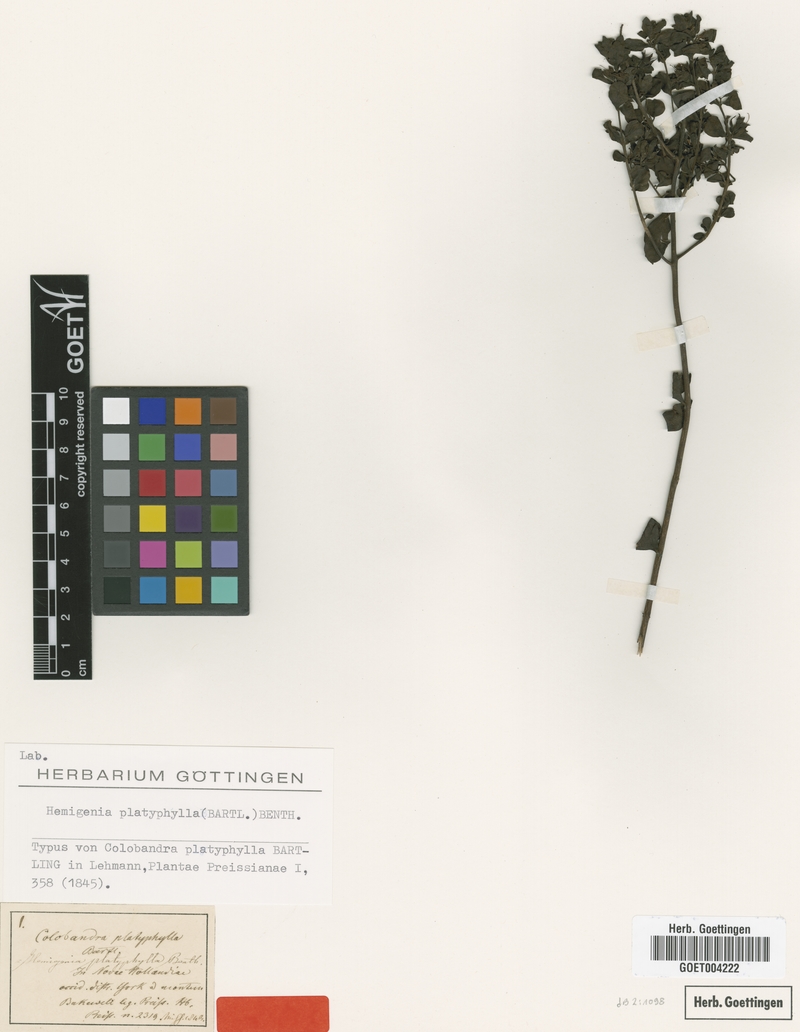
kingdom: Plantae
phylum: Tracheophyta
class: Magnoliopsida
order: Lamiales
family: Lamiaceae
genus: Hemigenia
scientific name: Hemigenia platyphylla
